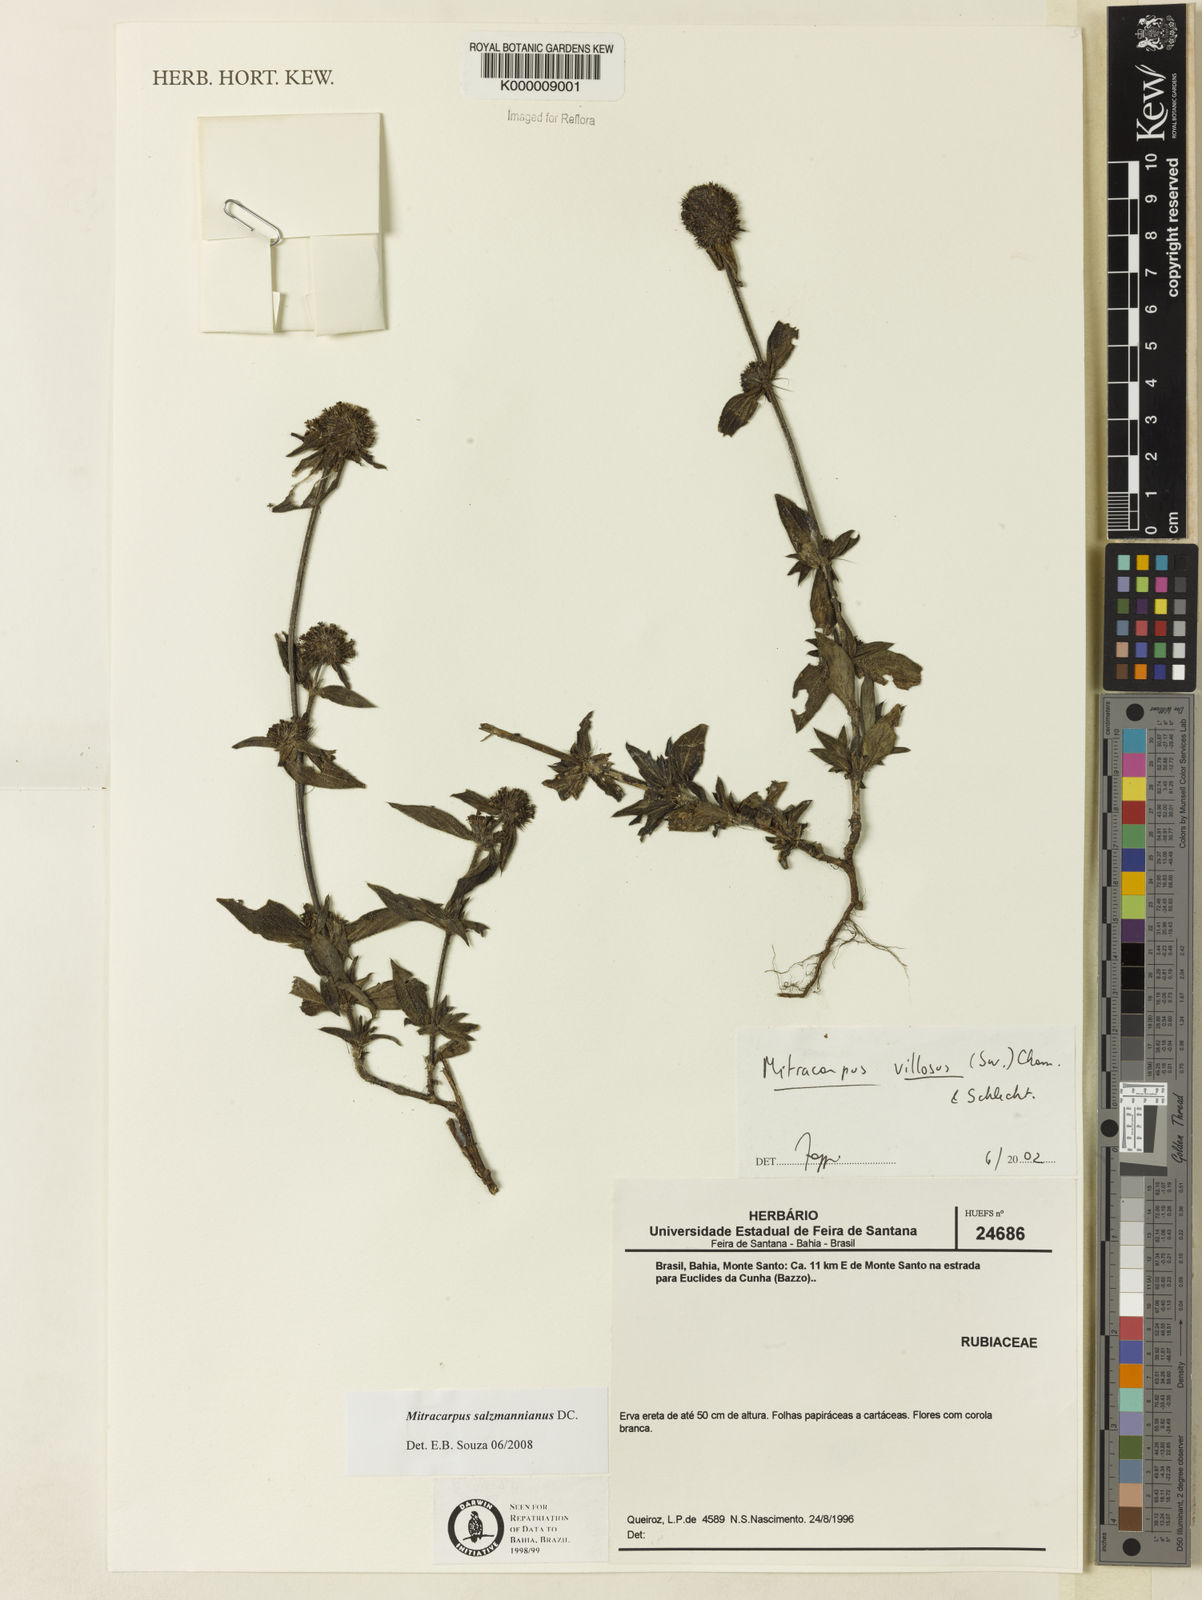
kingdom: Plantae
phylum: Tracheophyta
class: Magnoliopsida
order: Gentianales
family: Rubiaceae
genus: Mitracarpus
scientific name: Mitracarpus salzmannianus
